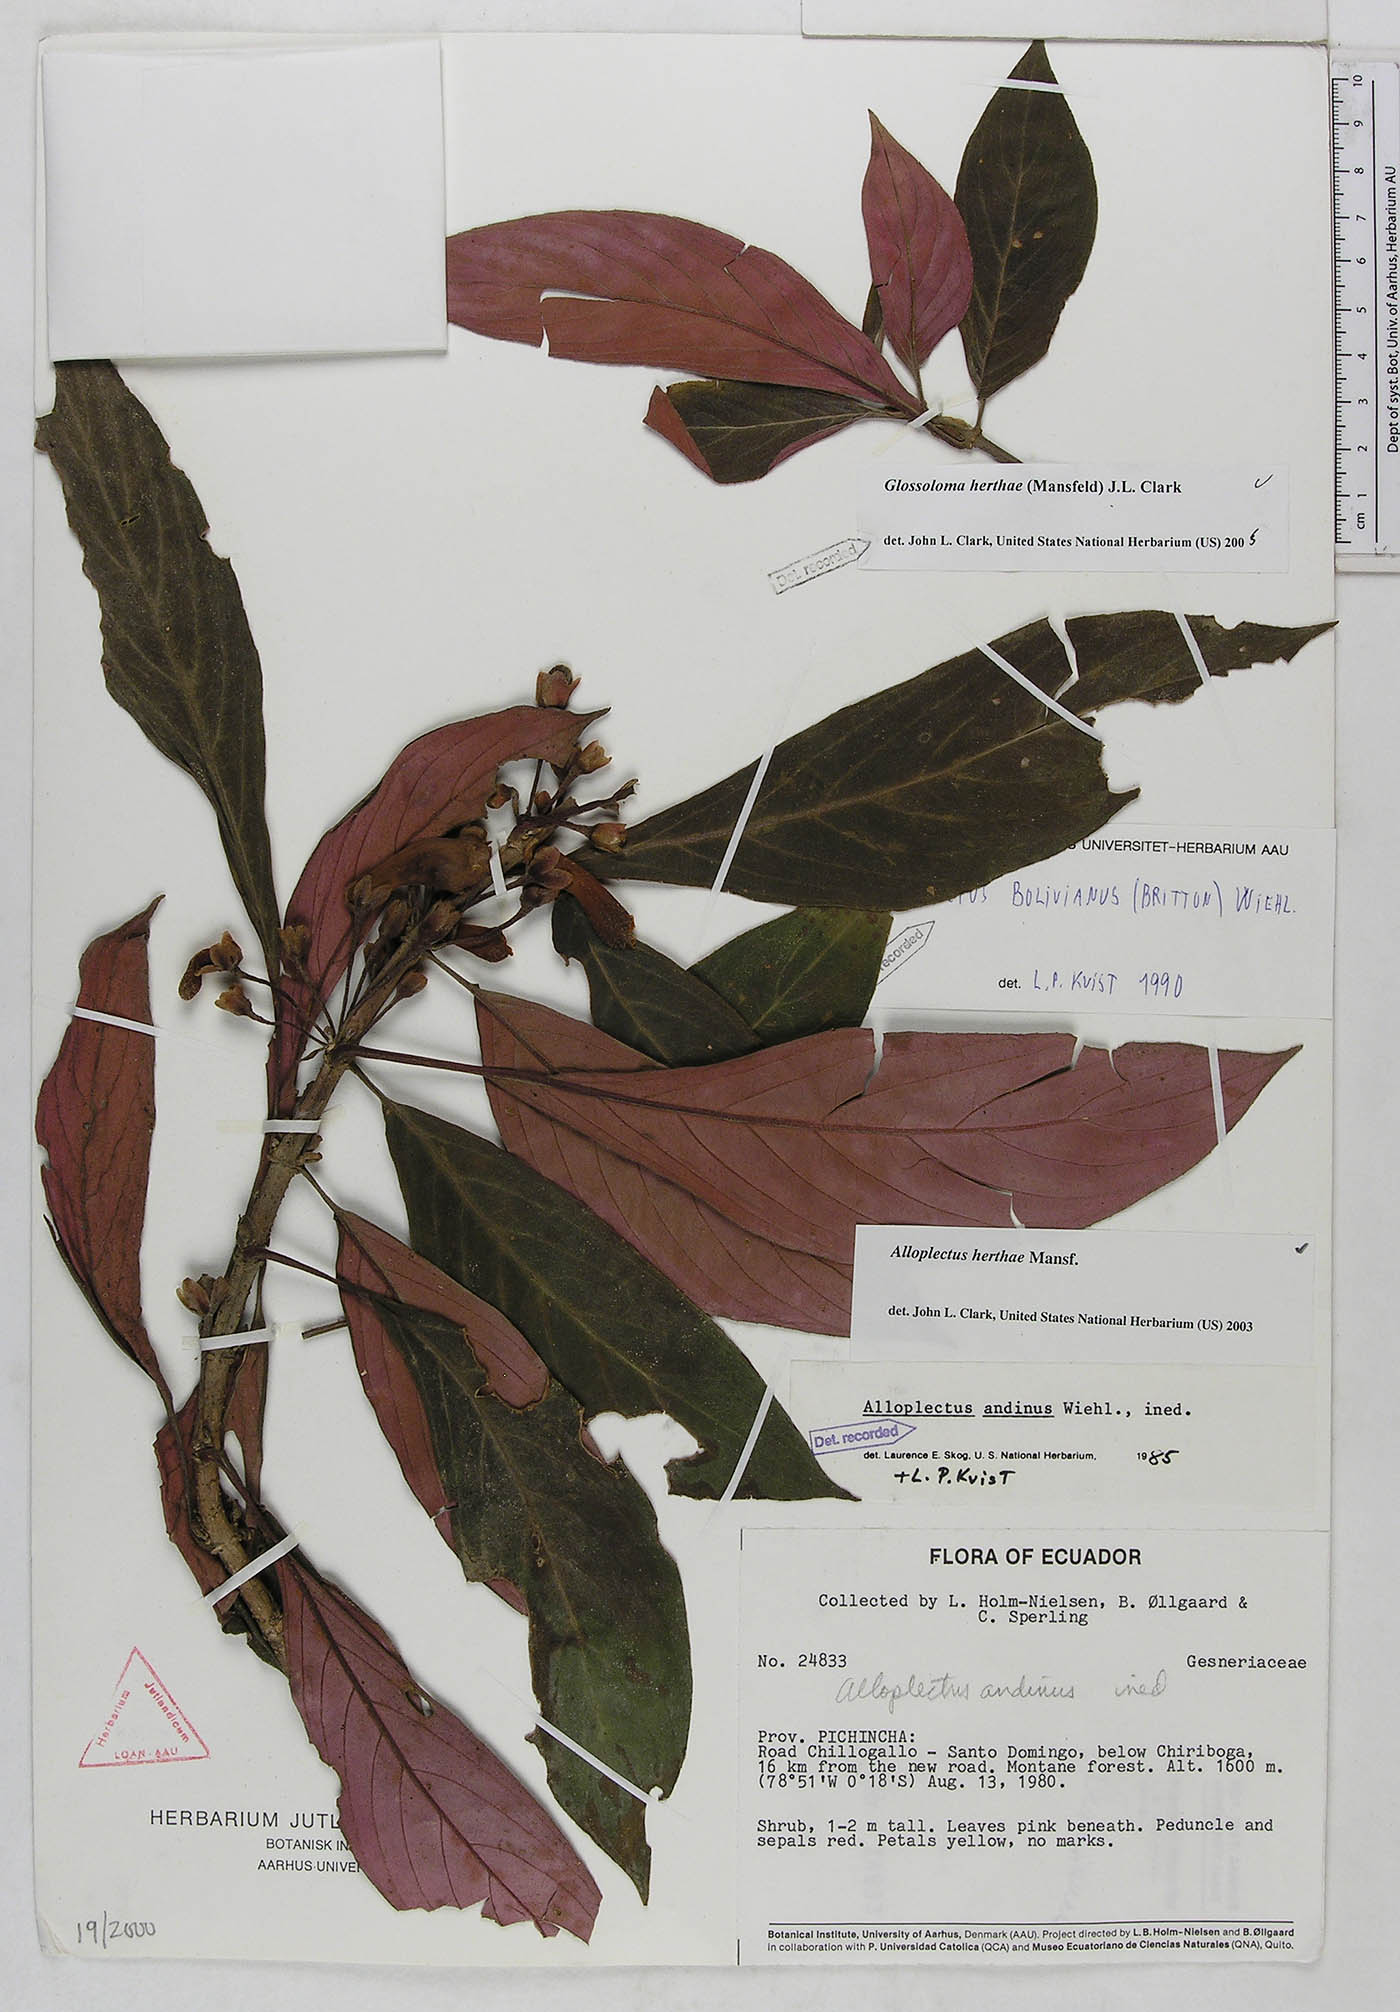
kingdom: Plantae
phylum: Tracheophyta
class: Magnoliopsida
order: Lamiales
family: Gesneriaceae
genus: Glossoloma
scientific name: Glossoloma herthae
